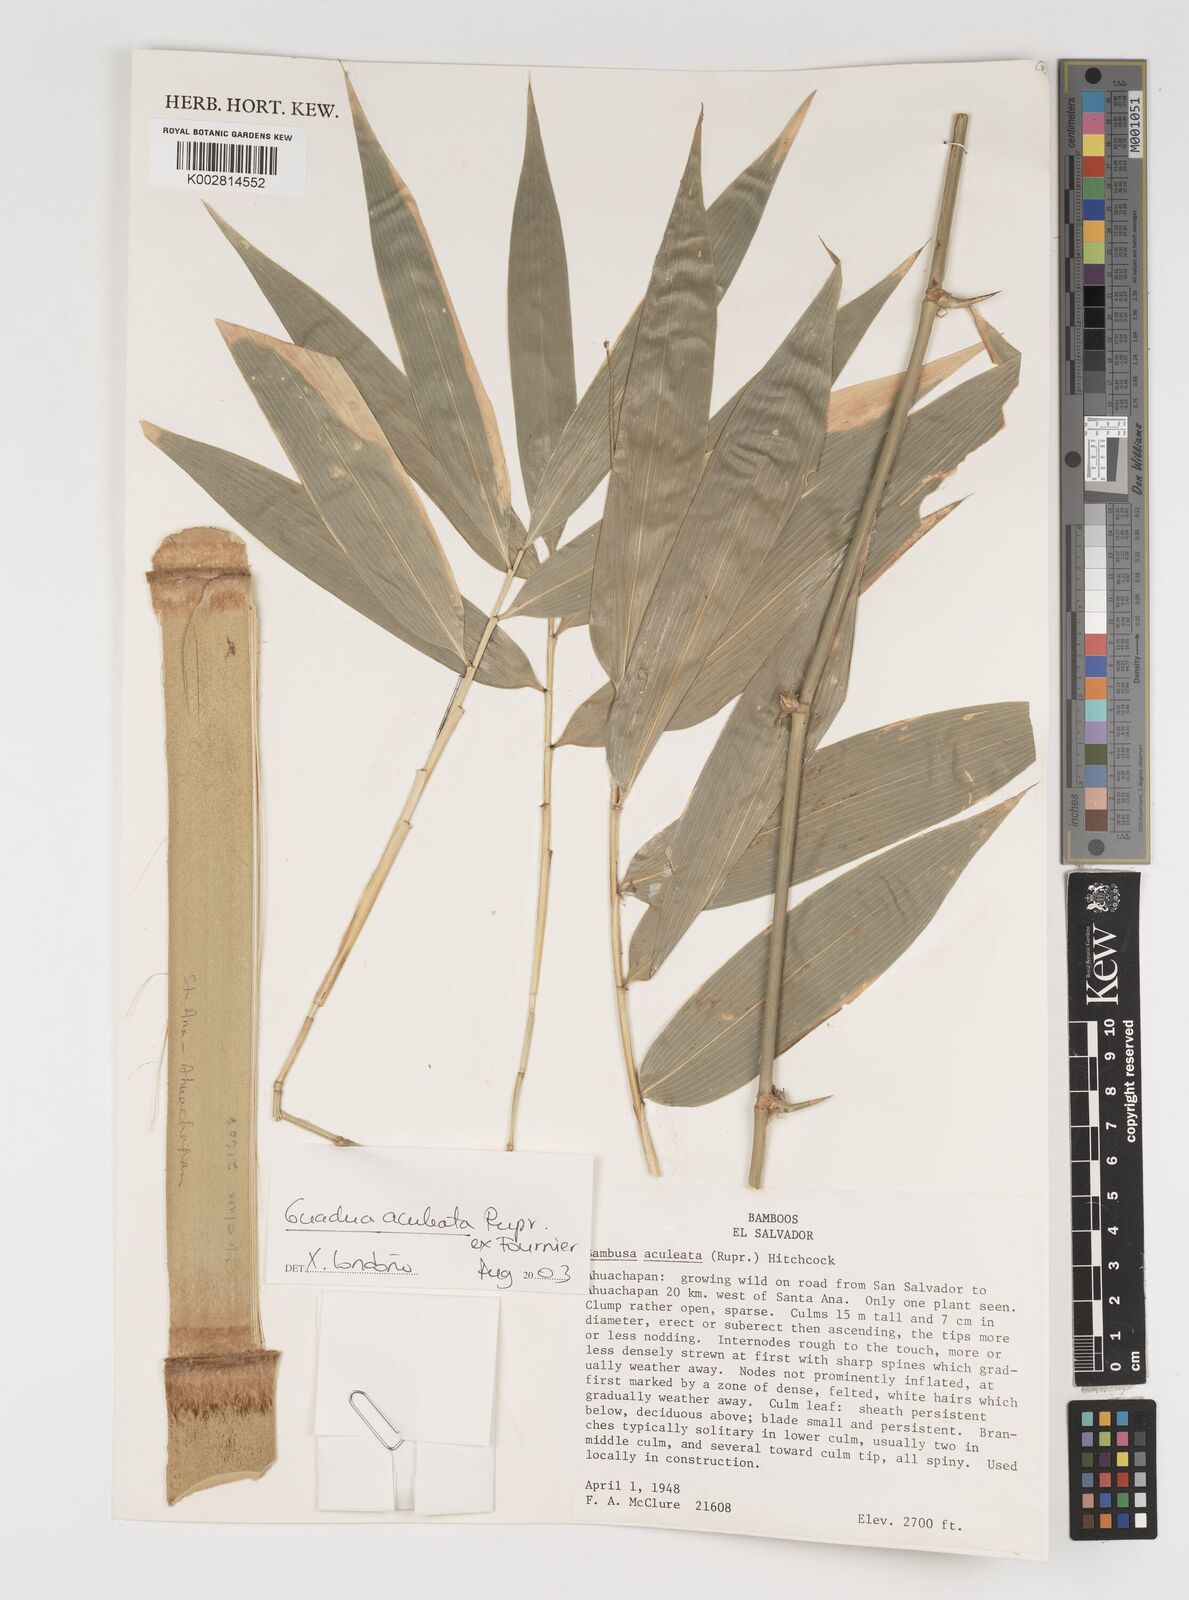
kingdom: Plantae
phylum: Tracheophyta
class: Liliopsida
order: Poales
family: Poaceae
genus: Guadua
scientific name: Guadua aculeata
